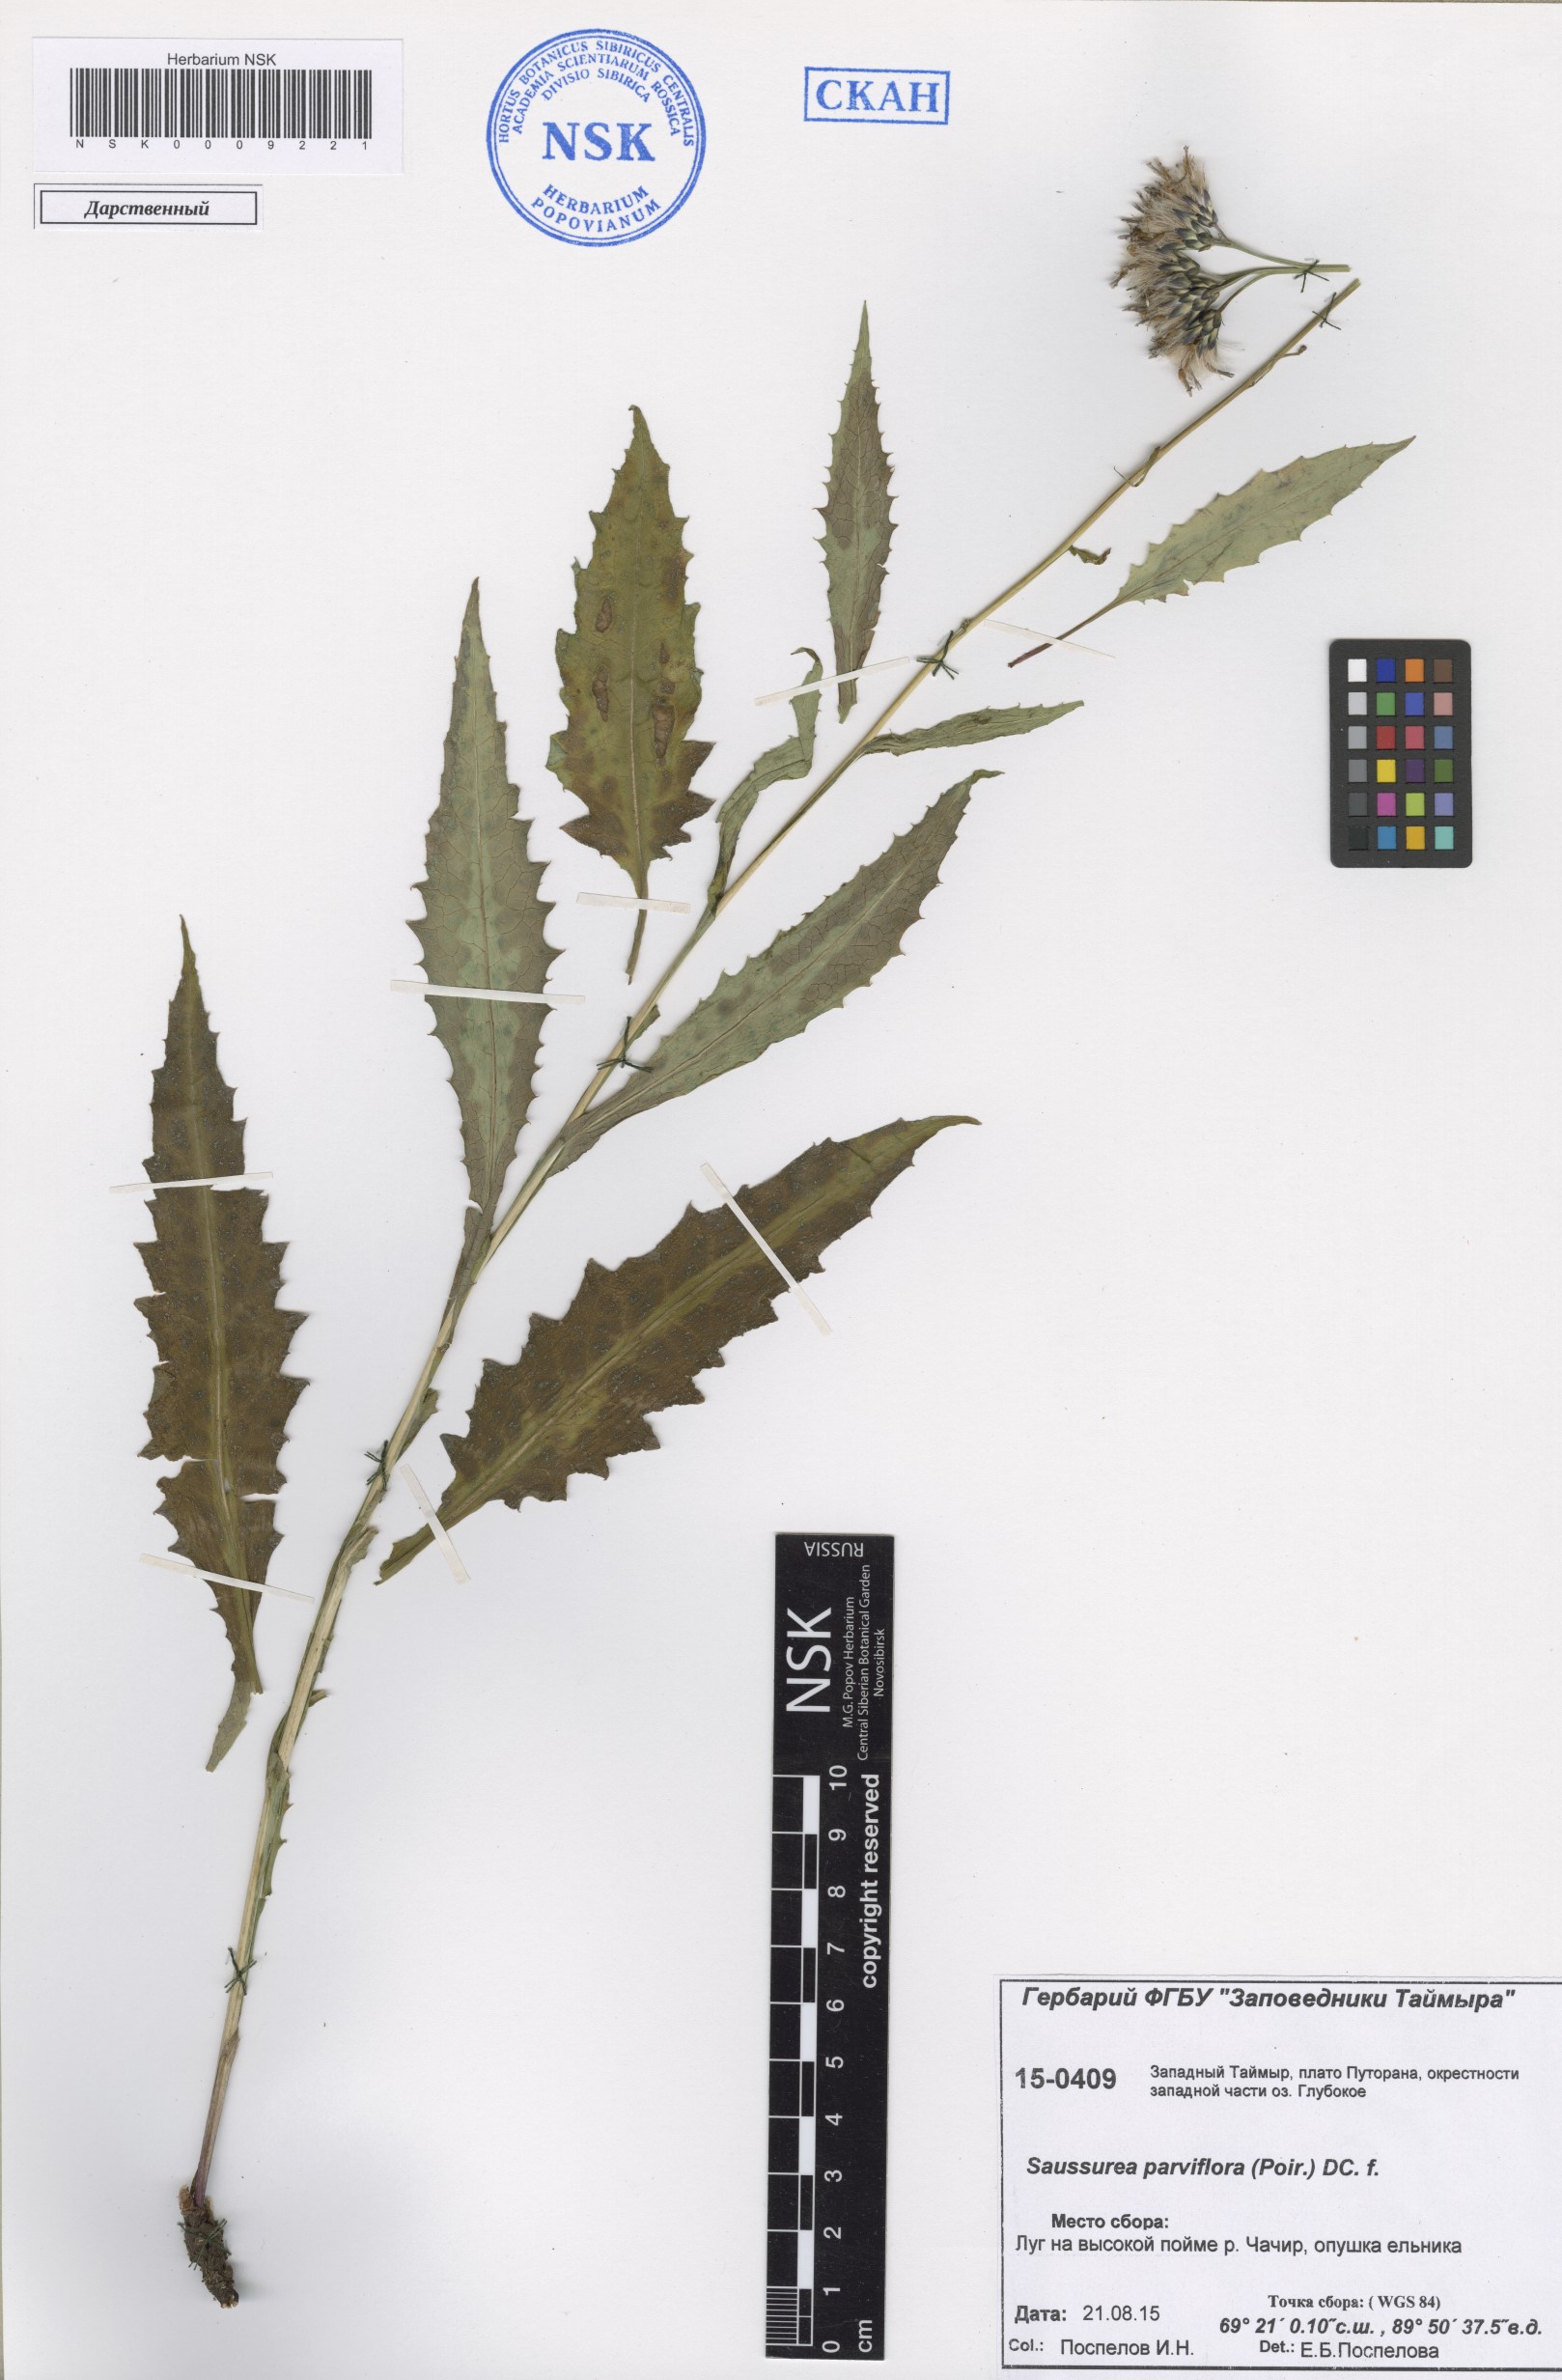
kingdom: Plantae
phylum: Tracheophyta
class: Magnoliopsida
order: Asterales
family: Asteraceae
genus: Saussurea
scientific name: Saussurea parviflora
